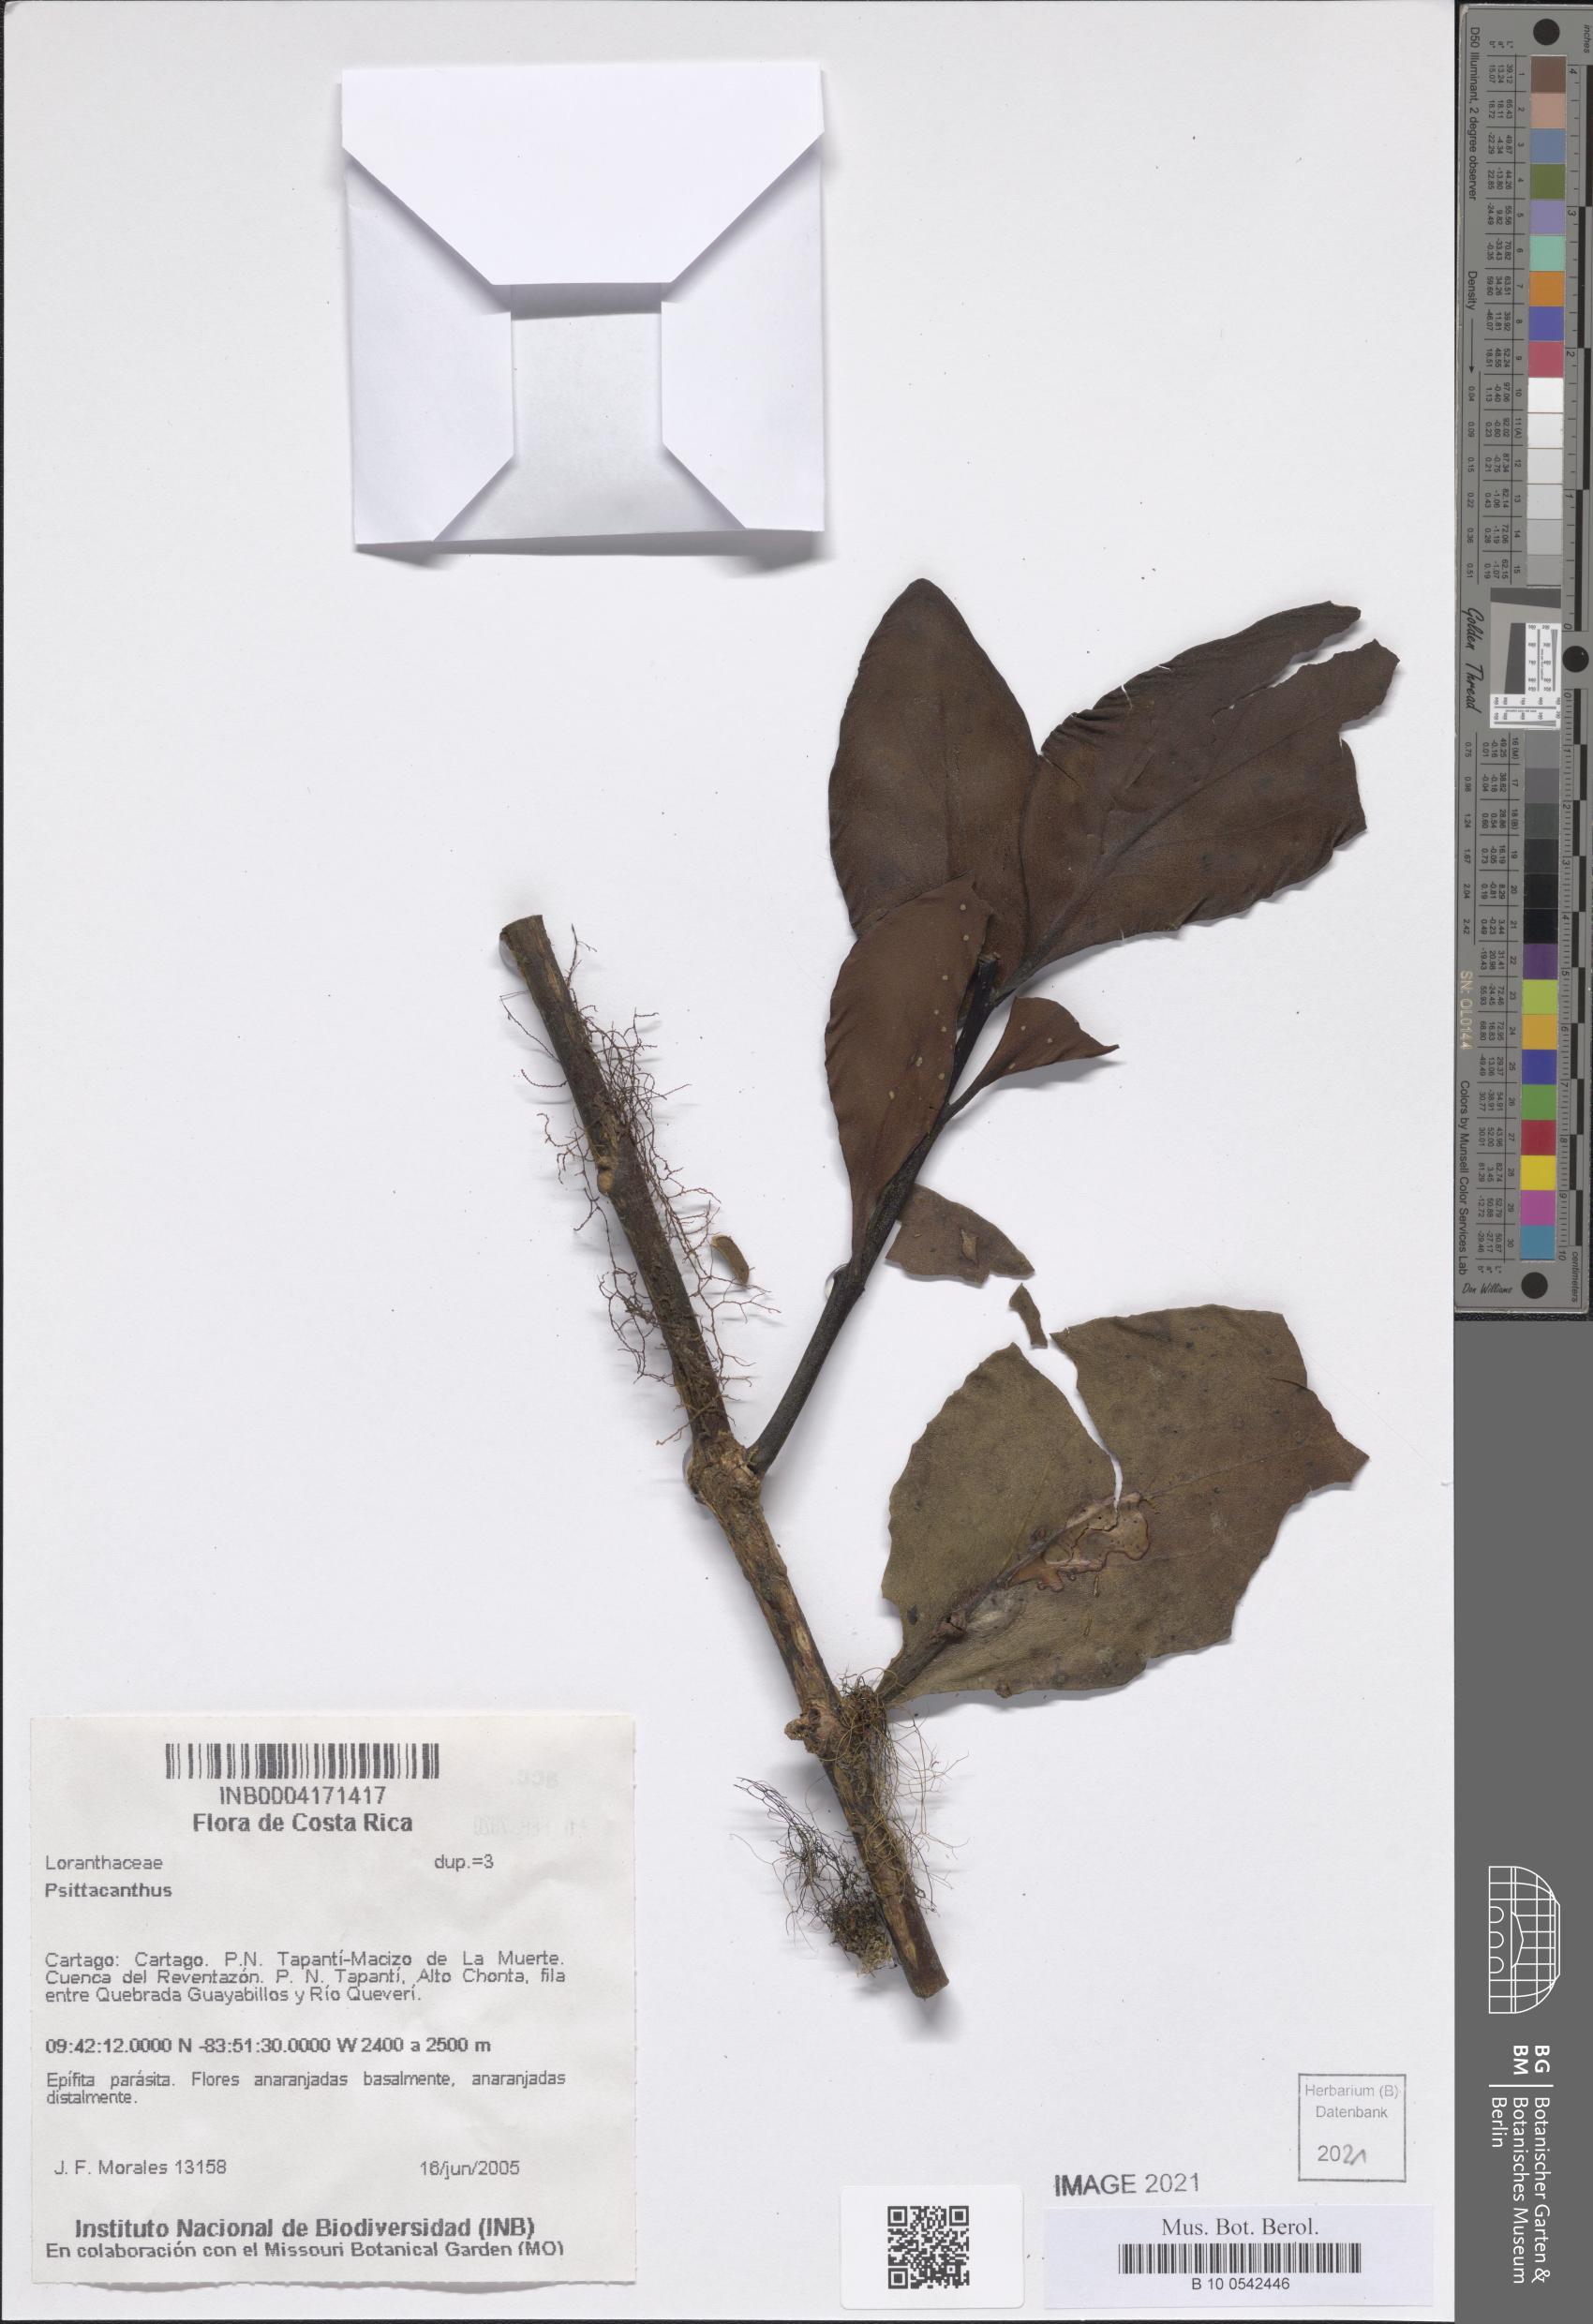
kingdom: Plantae
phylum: Tracheophyta
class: Magnoliopsida
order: Santalales
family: Loranthaceae
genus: Psittacanthus
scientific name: Psittacanthus
